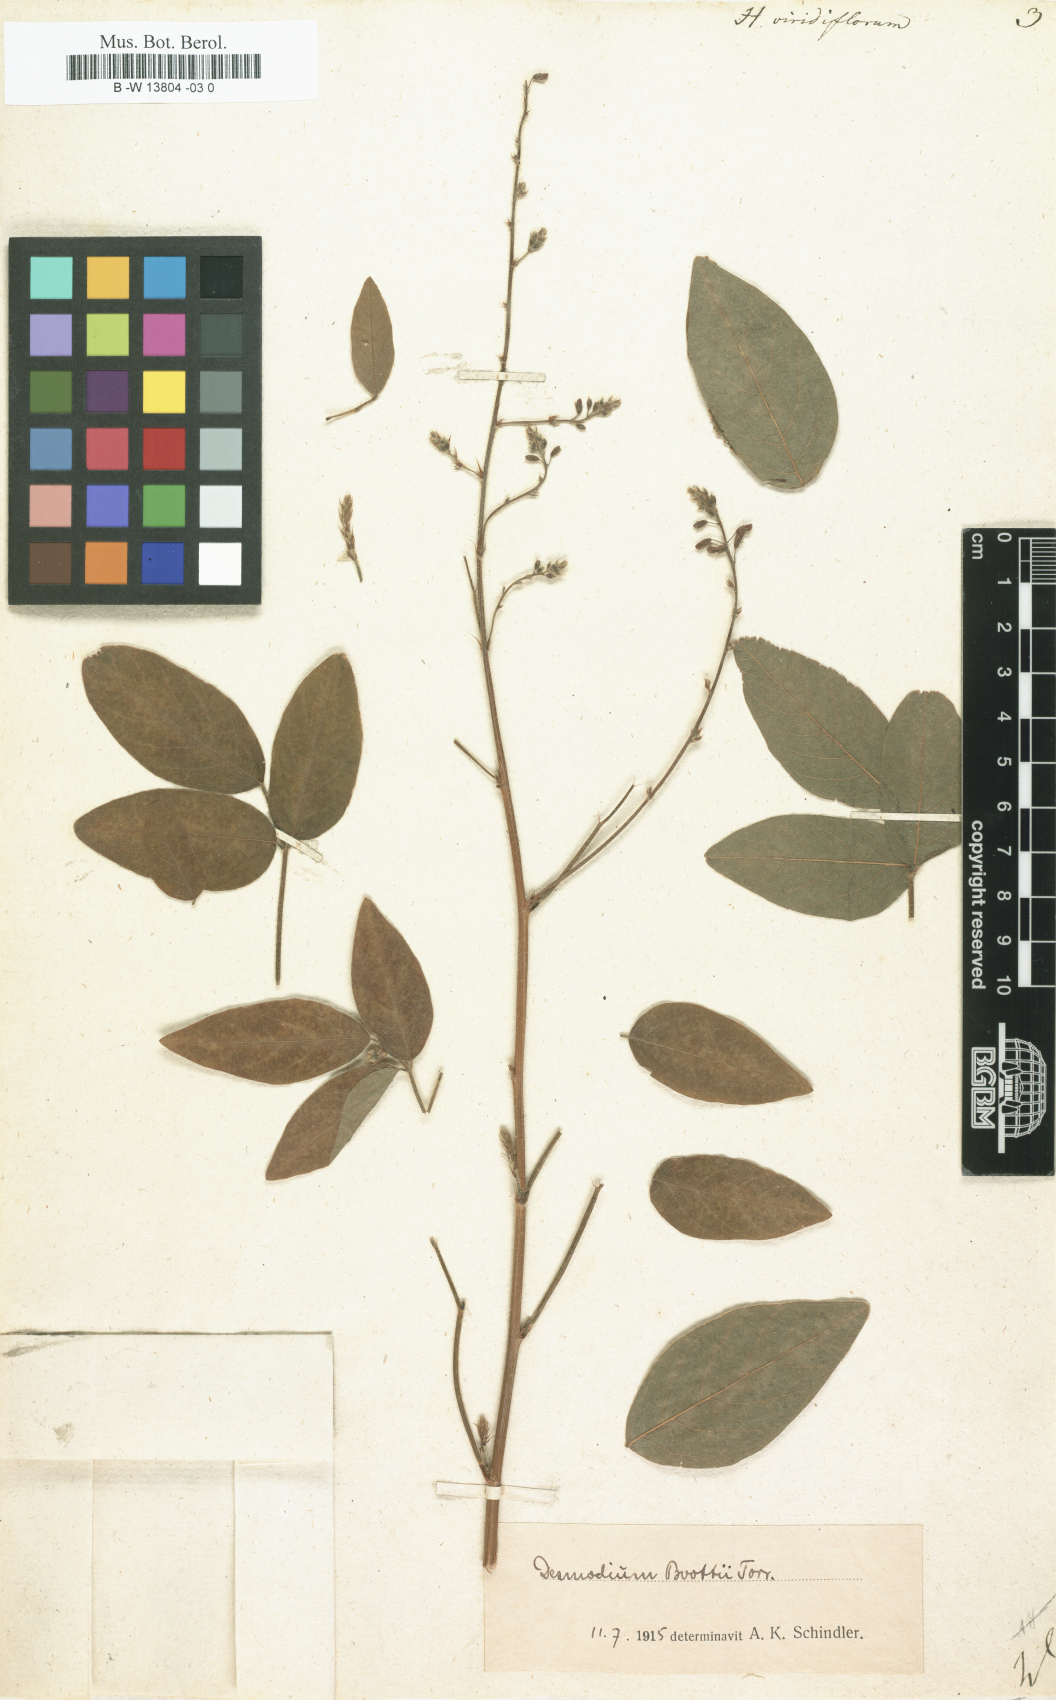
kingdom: Plantae
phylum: Tracheophyta
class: Magnoliopsida
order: Fabales
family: Fabaceae
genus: Desmodium
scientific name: Desmodium viridiflorum
